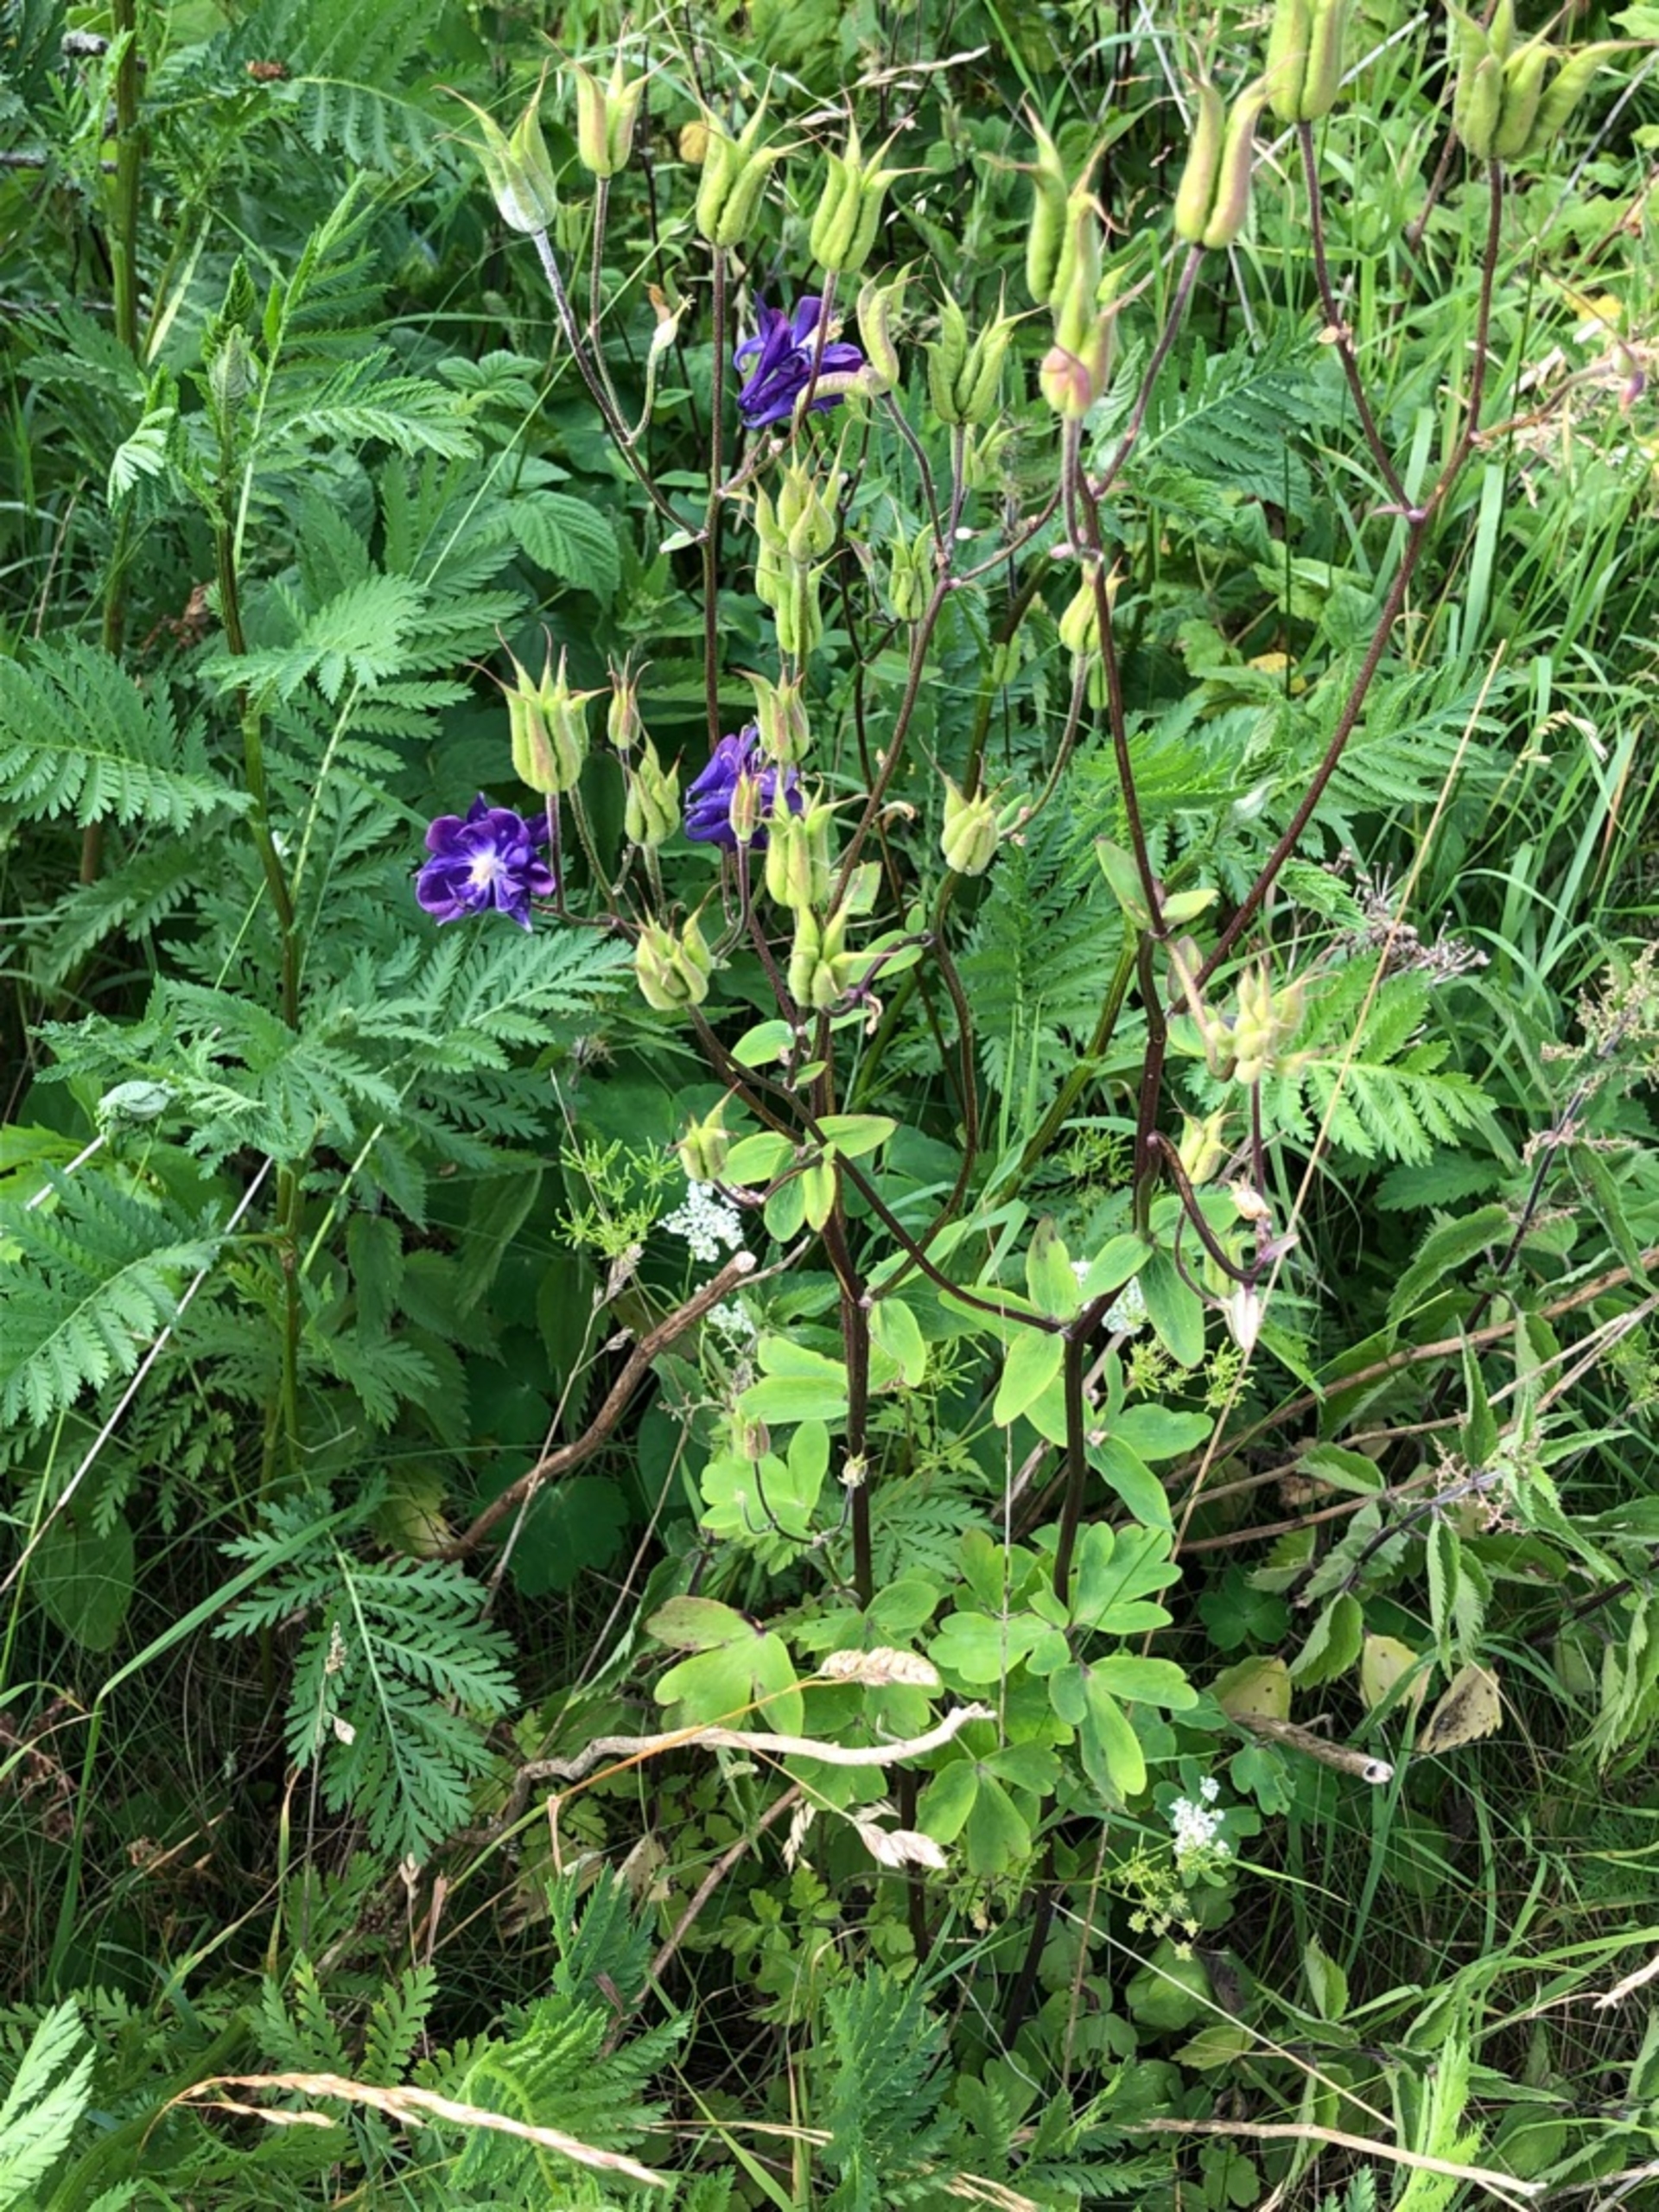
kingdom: Plantae
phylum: Tracheophyta
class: Magnoliopsida
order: Ranunculales
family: Ranunculaceae
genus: Aquilegia
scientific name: Aquilegia vulgaris
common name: Akeleje
